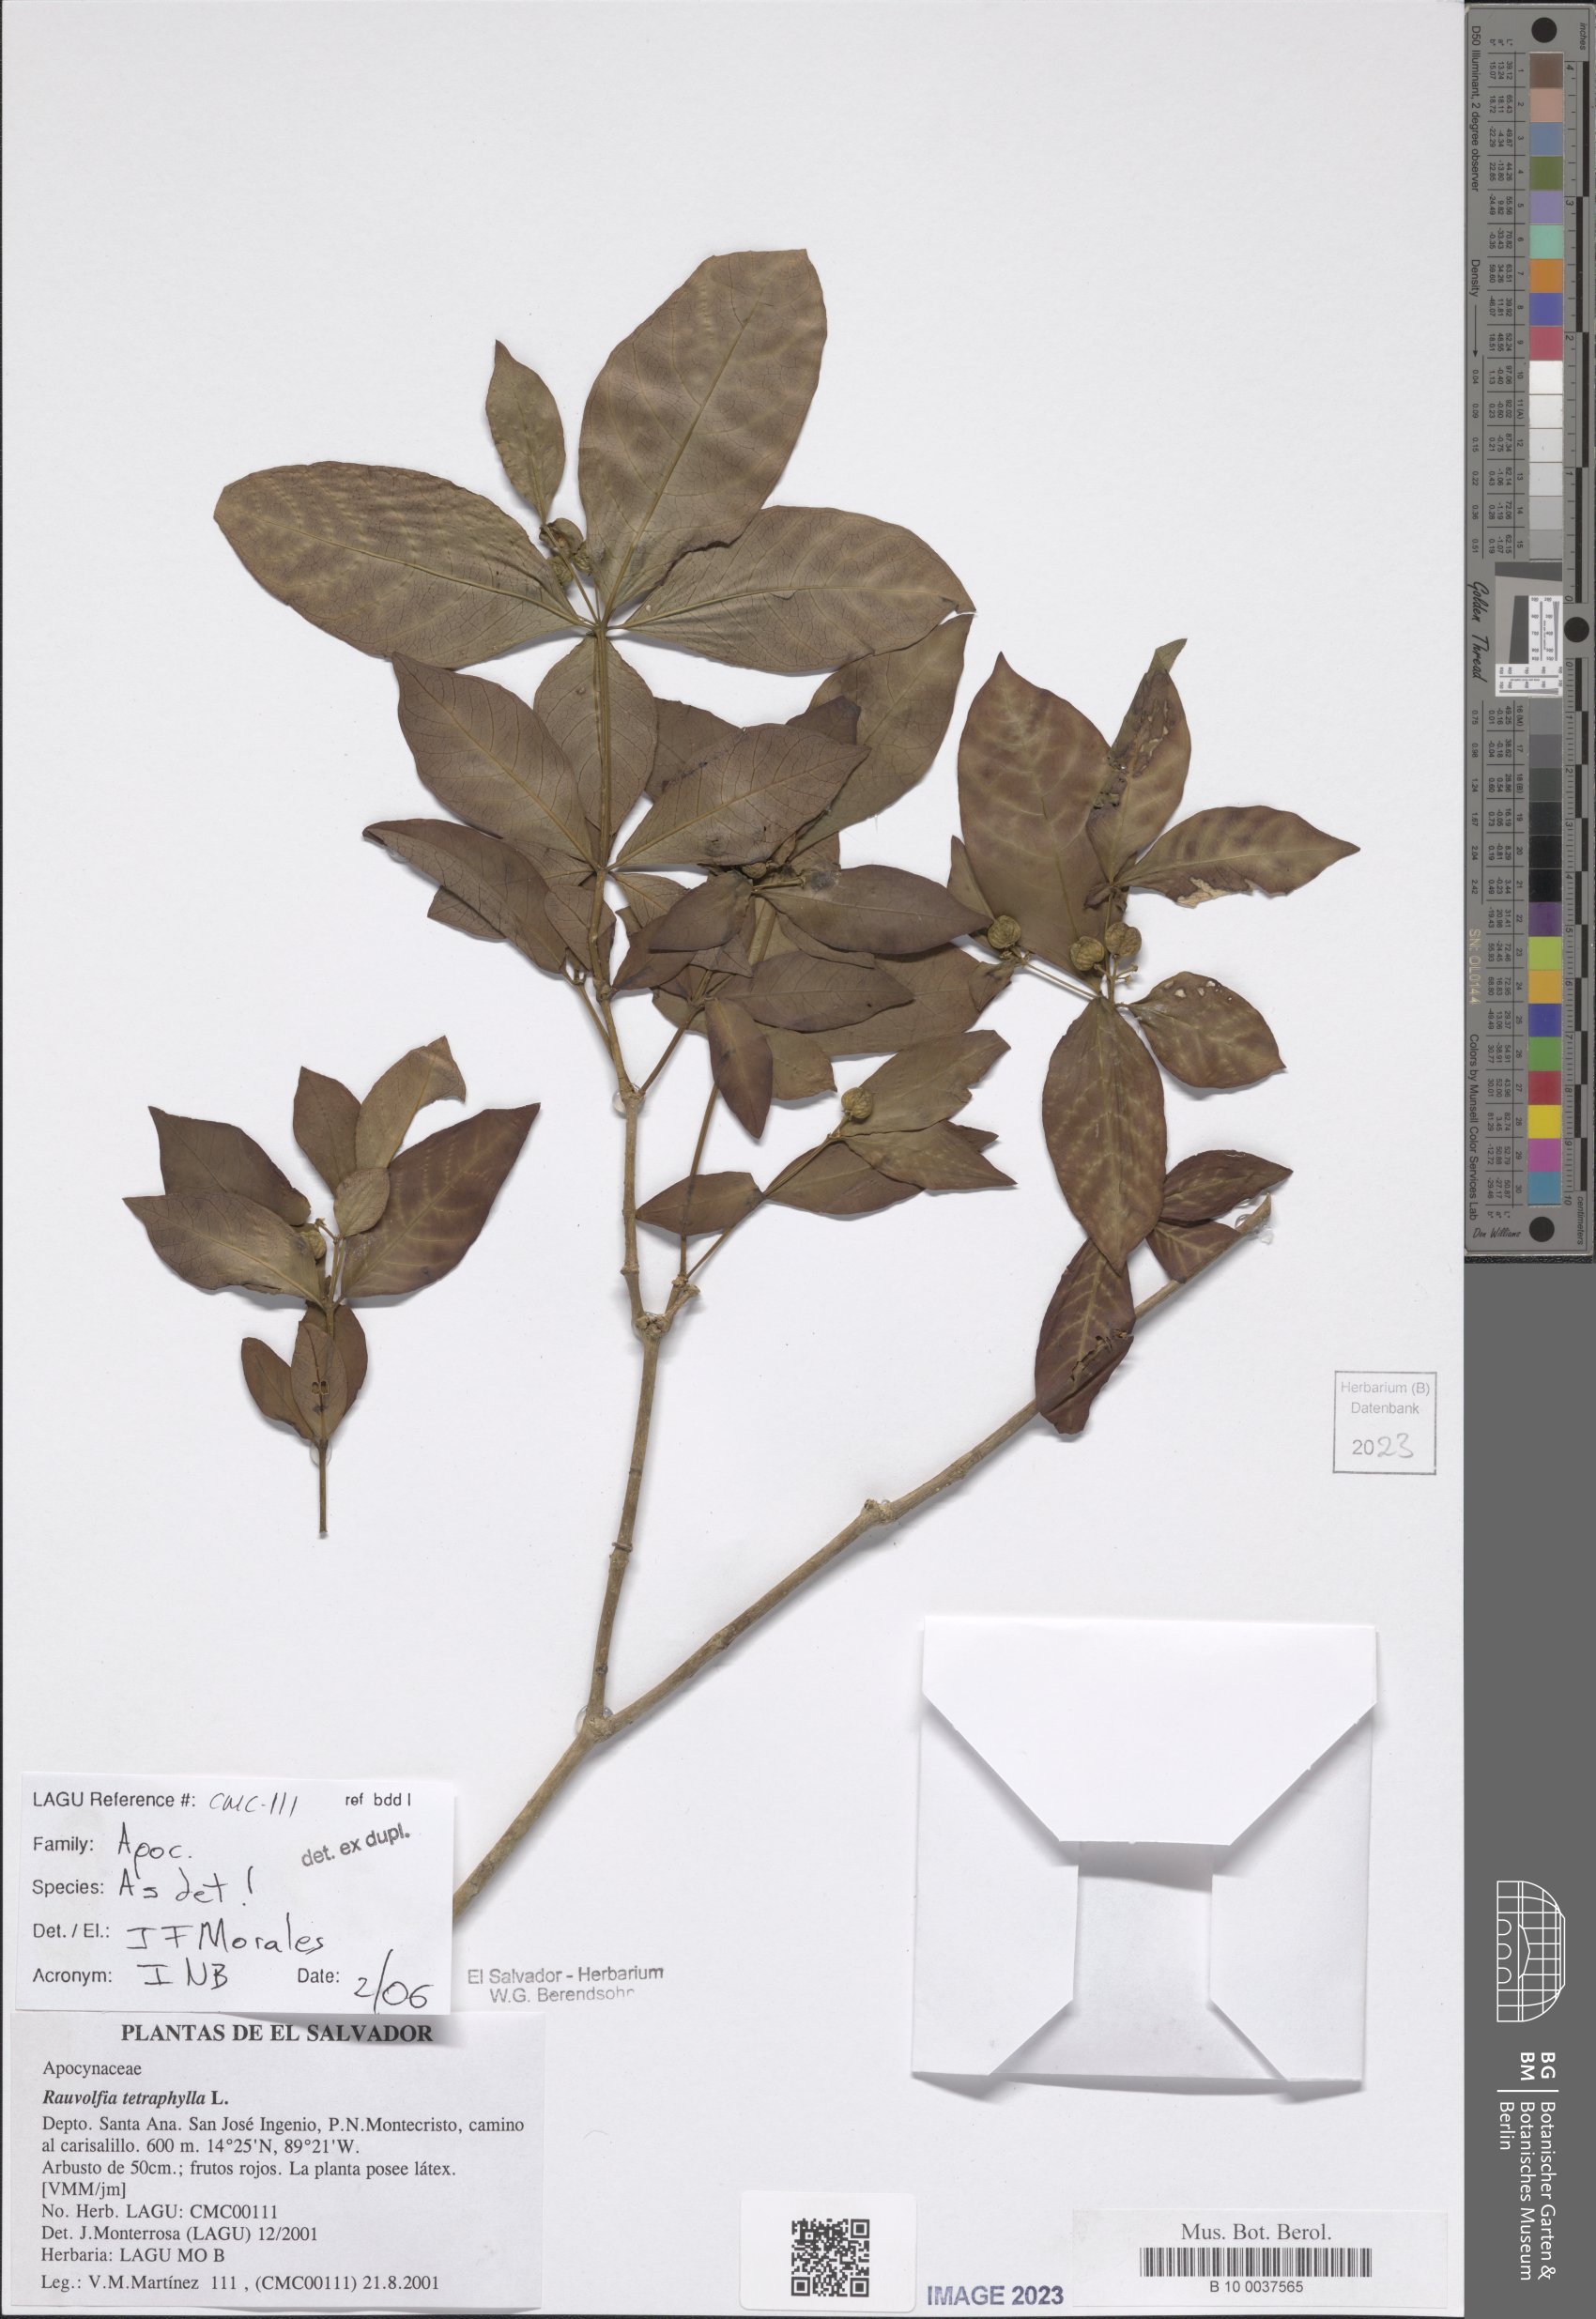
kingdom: Plantae
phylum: Tracheophyta
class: Magnoliopsida
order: Gentianales
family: Apocynaceae
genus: Rauvolfia
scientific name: Rauvolfia tetraphylla
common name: Four-leaf devil-pepper
